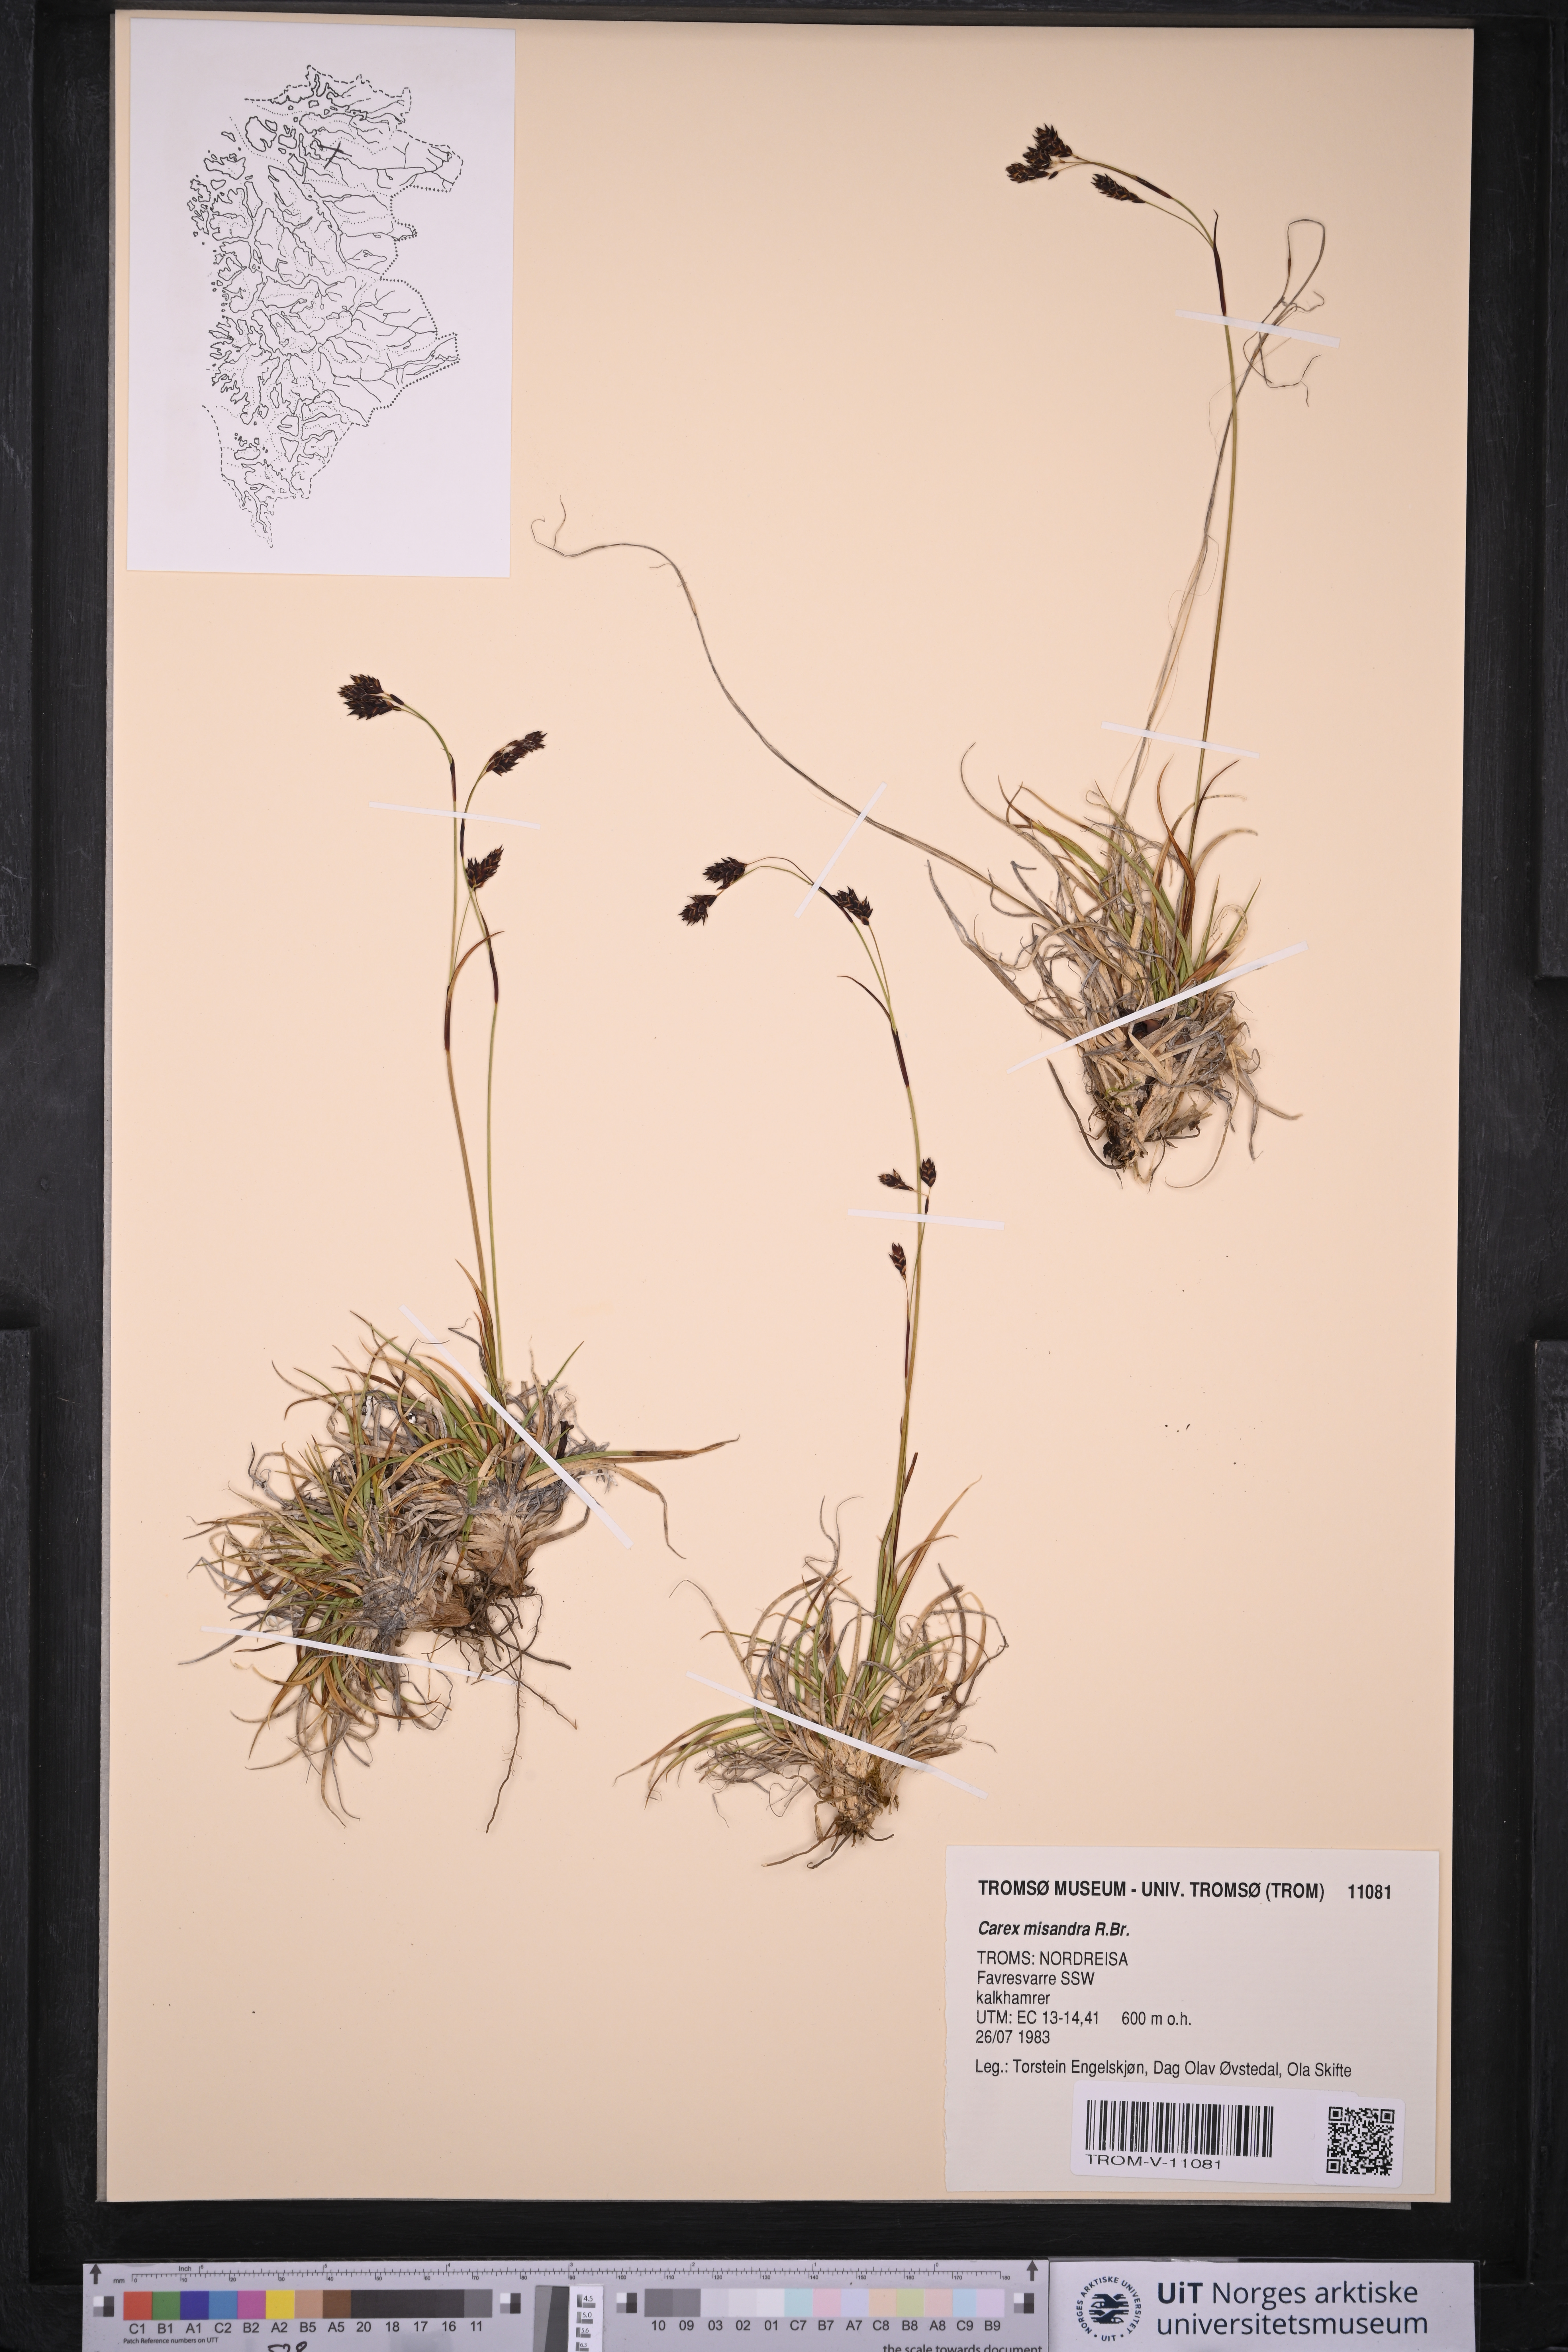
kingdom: Plantae
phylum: Tracheophyta
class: Liliopsida
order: Poales
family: Cyperaceae
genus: Carex
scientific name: Carex fuliginosa
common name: Few-flowered sedge
